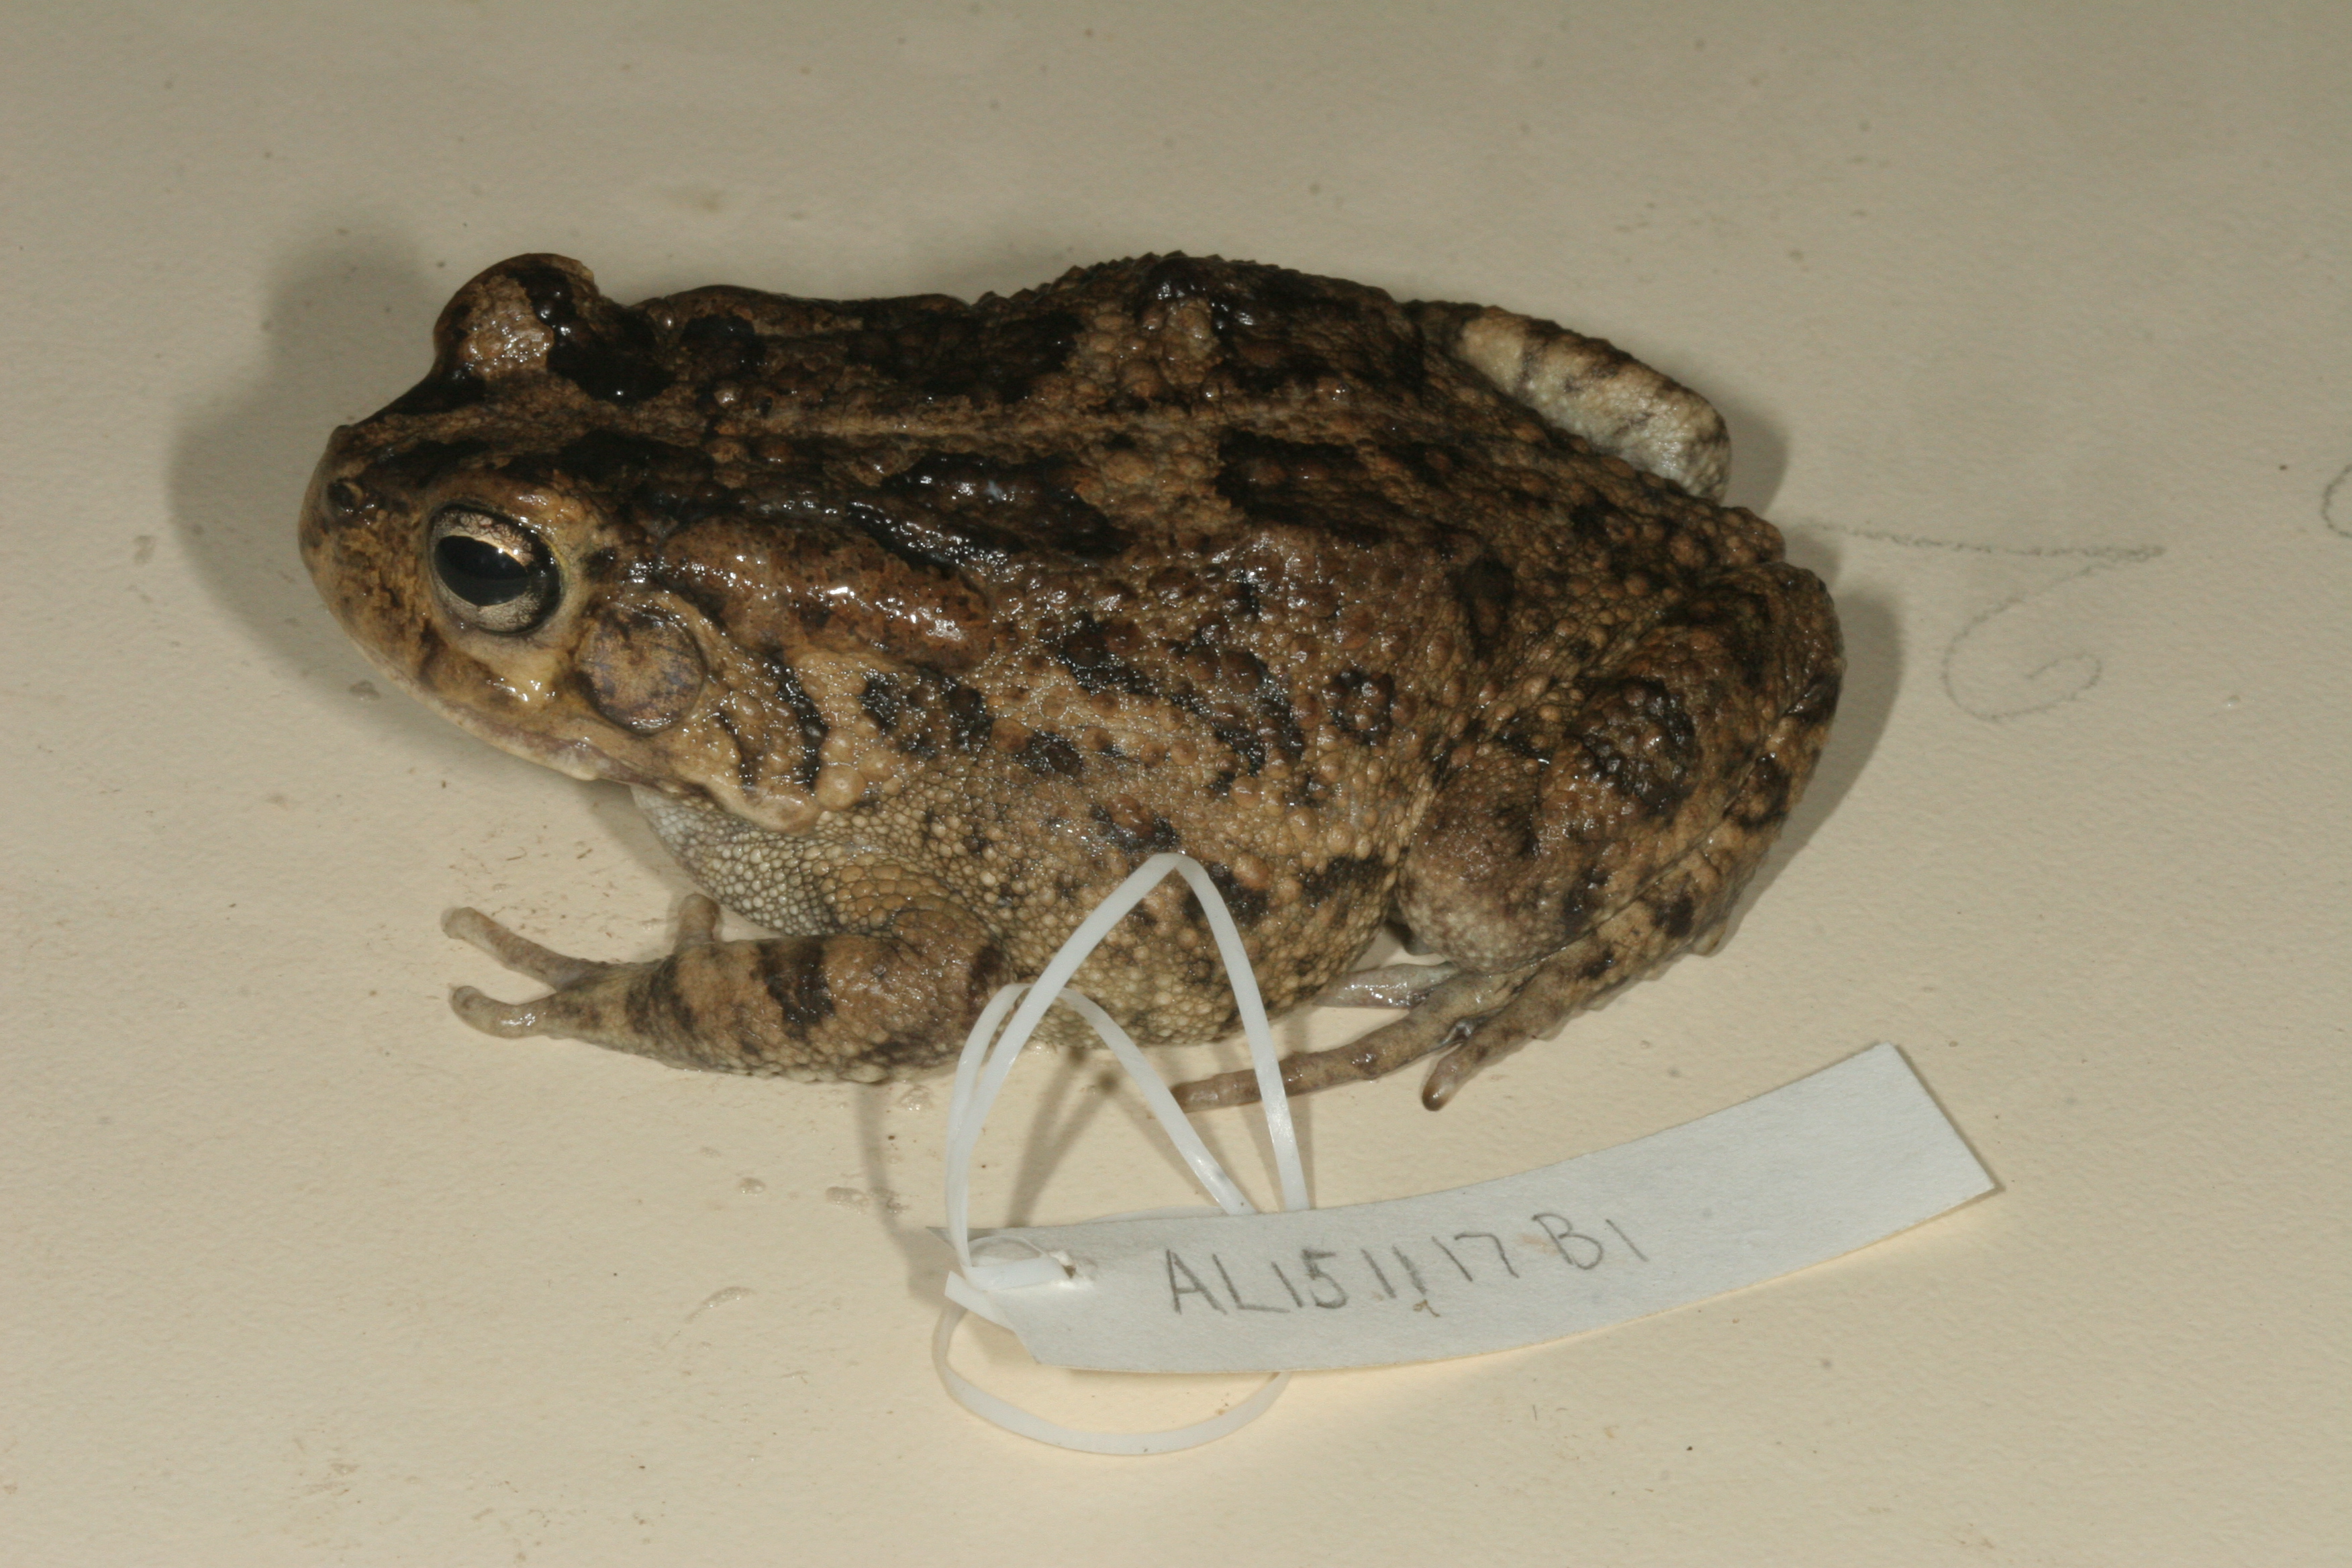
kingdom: Animalia
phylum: Chordata
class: Amphibia
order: Anura
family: Bufonidae
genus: Sclerophrys
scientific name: Sclerophrys gutturalis
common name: African common toad
